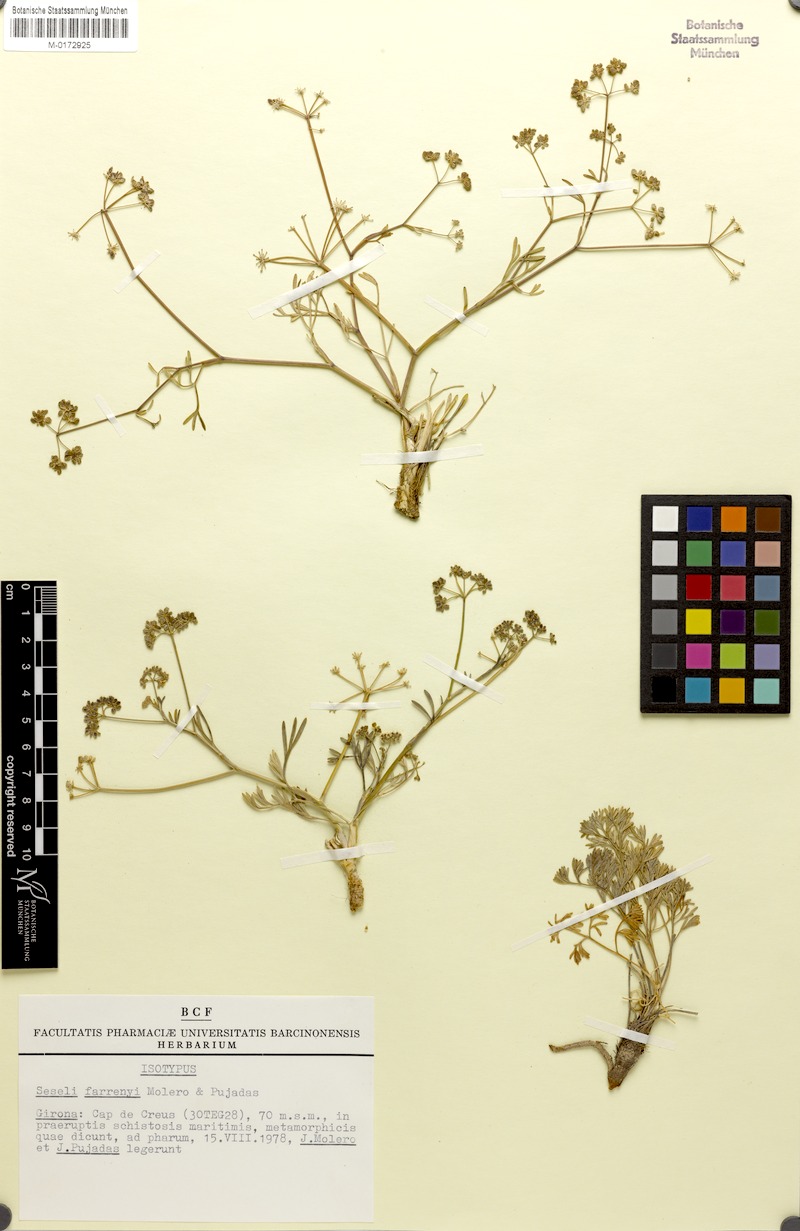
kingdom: Plantae
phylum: Tracheophyta
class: Magnoliopsida
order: Apiales
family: Apiaceae
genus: Seseli
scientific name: Seseli farrenyi
